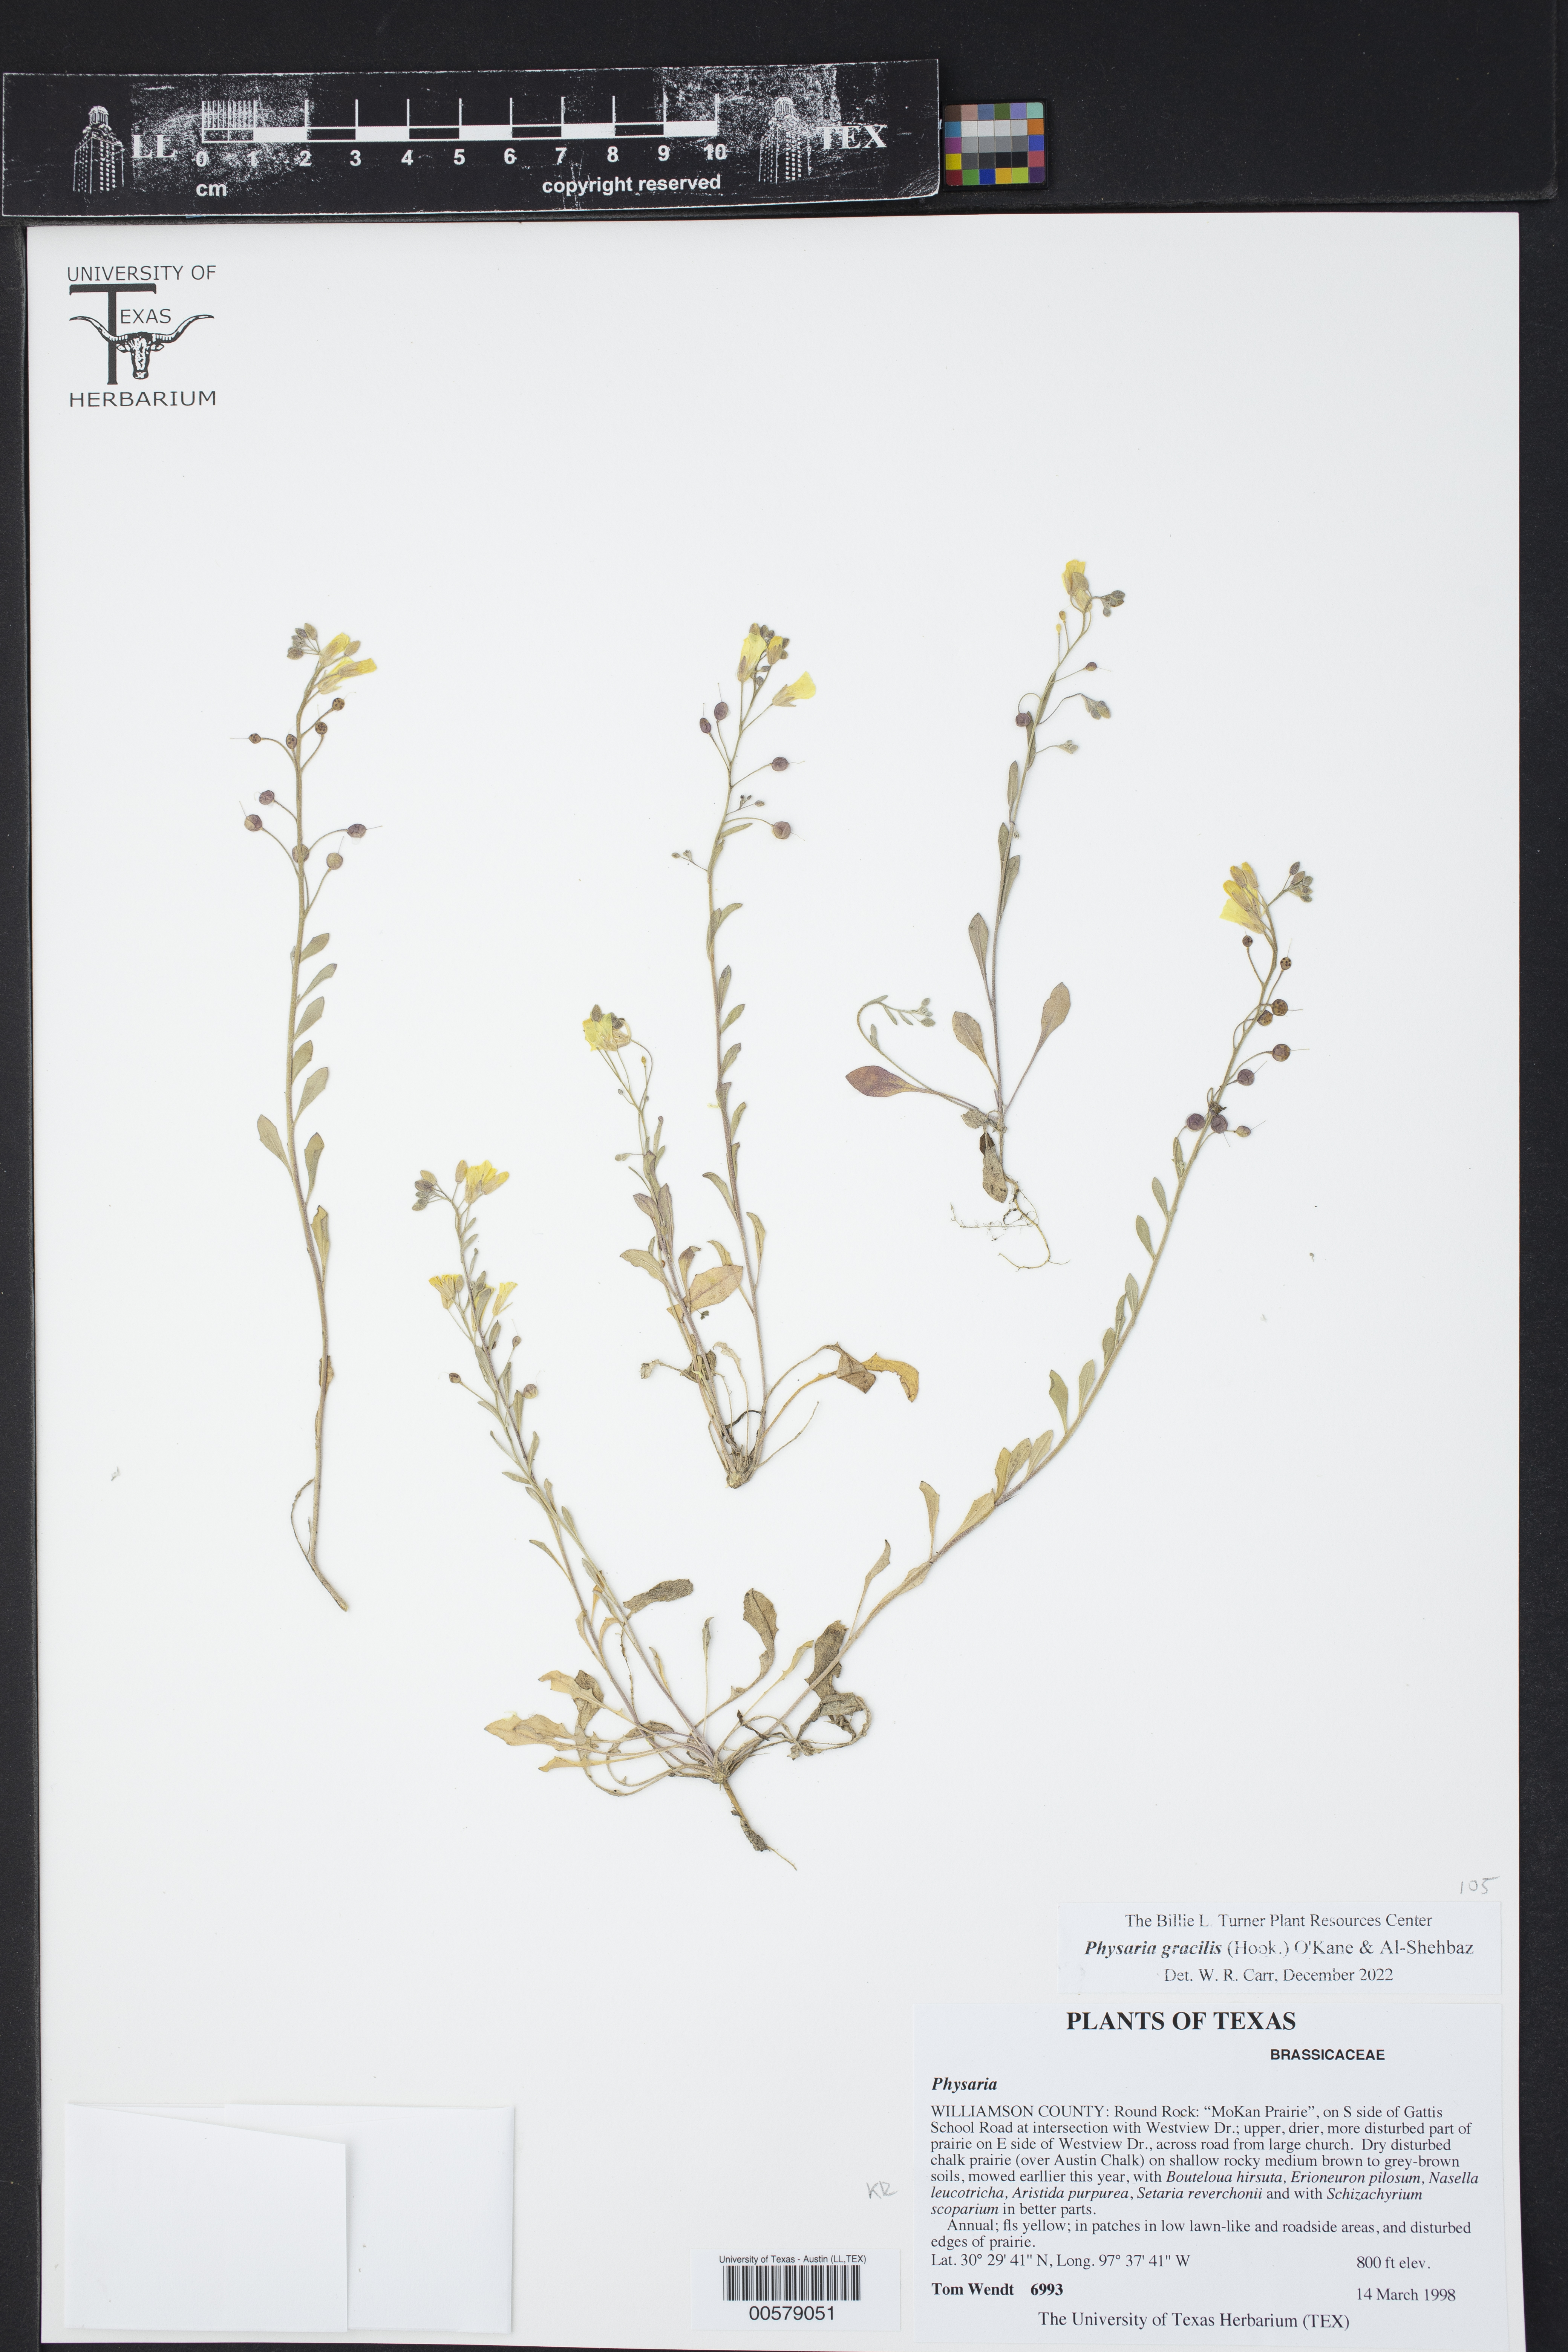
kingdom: Plantae
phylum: Tracheophyta
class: Magnoliopsida
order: Brassicales
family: Brassicaceae
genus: Physaria
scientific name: Physaria gracilis
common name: Spreading bladderpod
